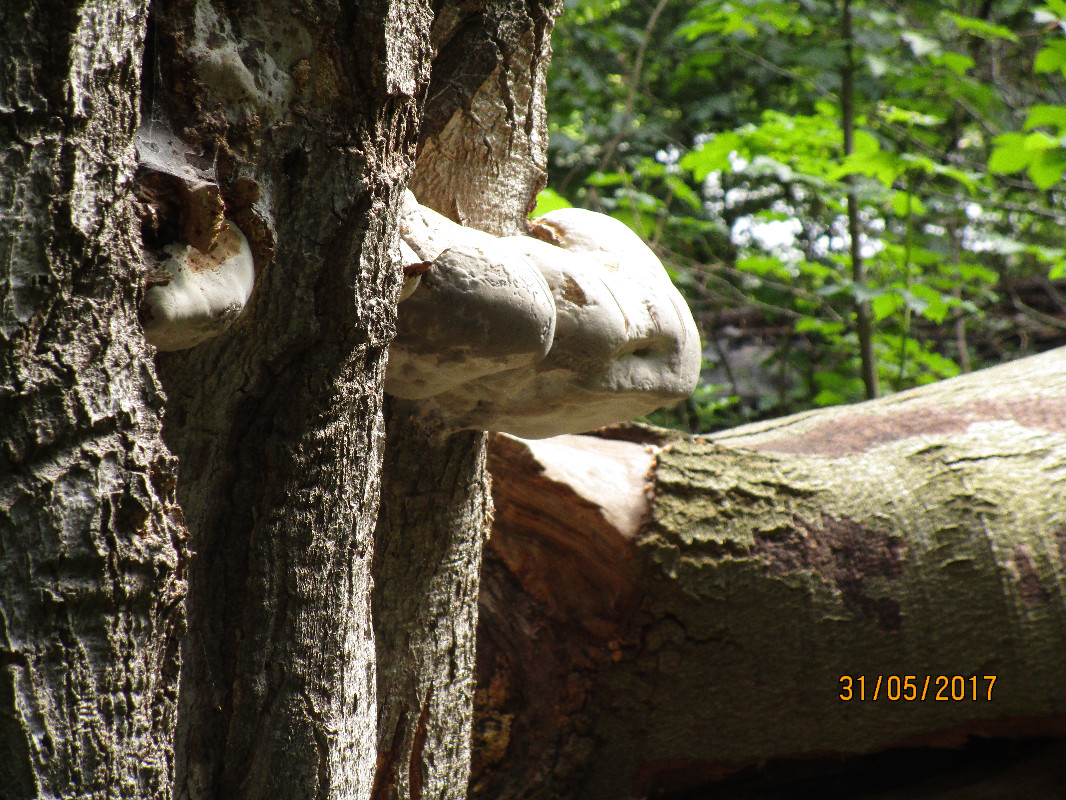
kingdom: Fungi
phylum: Basidiomycota
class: Agaricomycetes
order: Polyporales
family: Polyporaceae
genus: Fomes
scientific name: Fomes fomentarius
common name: tøndersvamp
